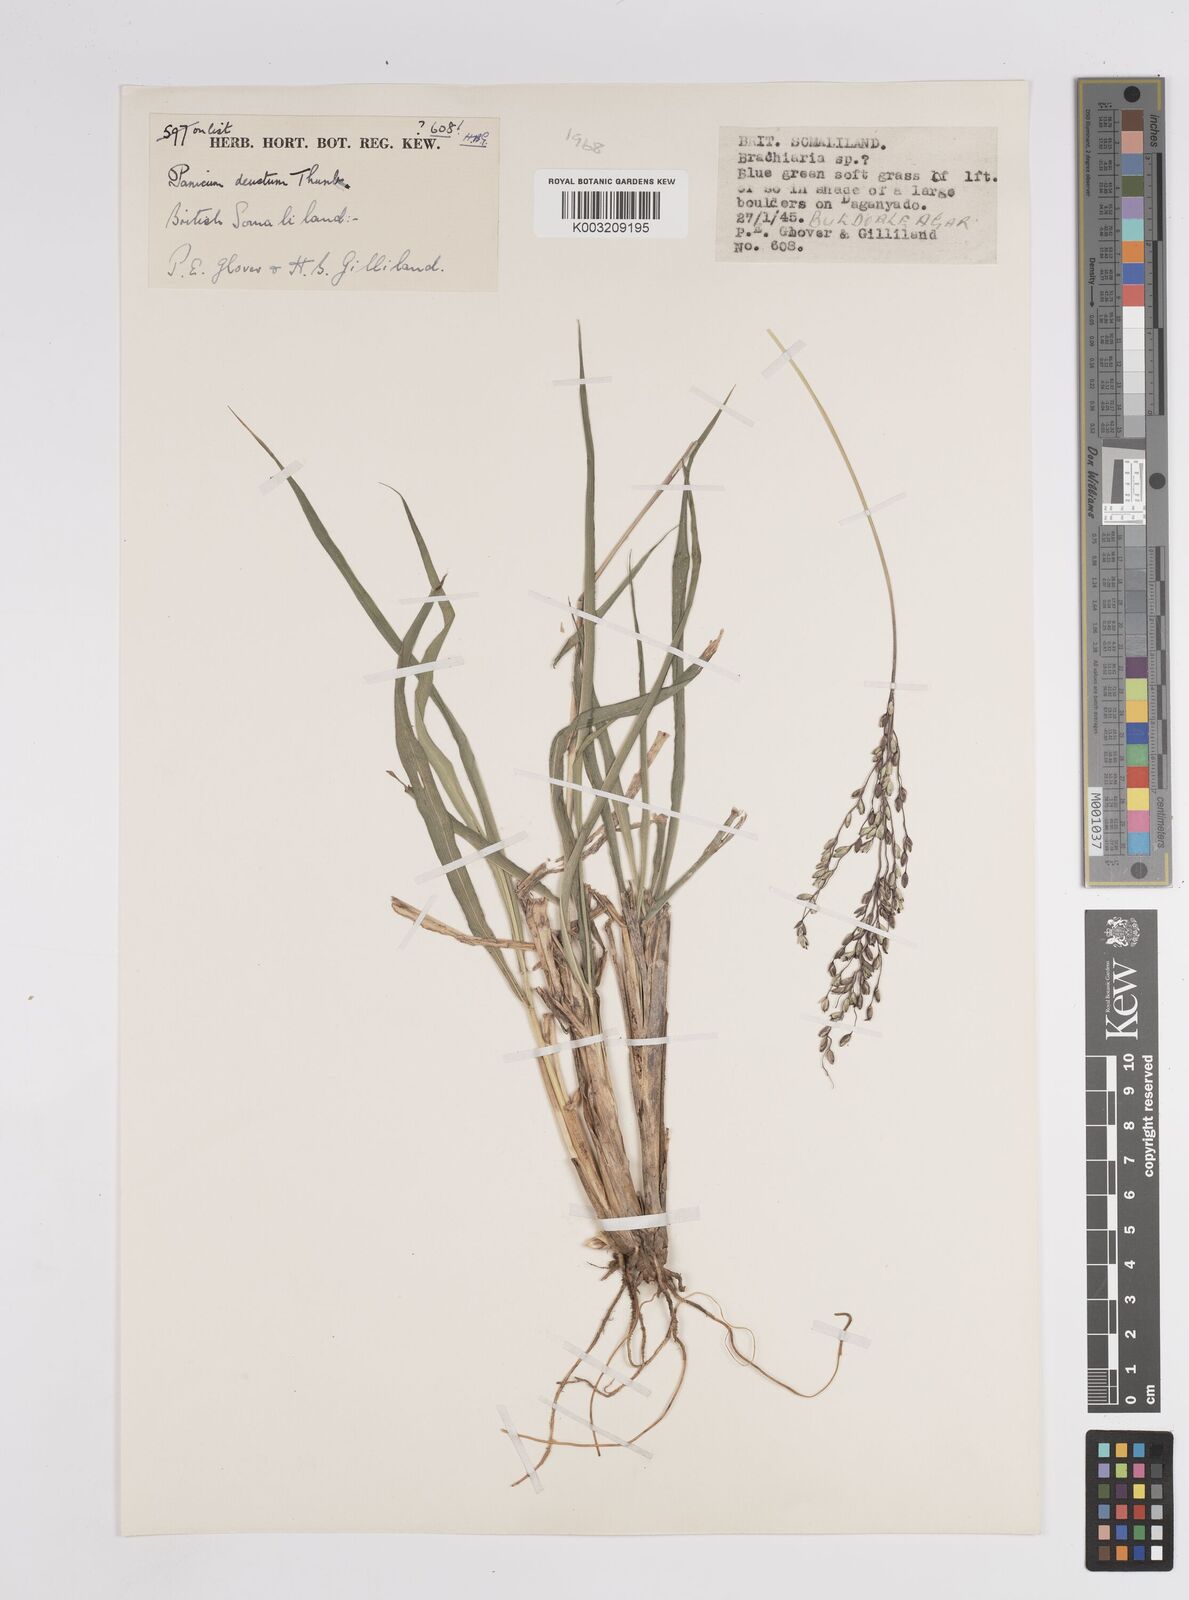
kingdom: Plantae
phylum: Tracheophyta
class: Liliopsida
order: Poales
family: Poaceae
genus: Panicum
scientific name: Panicum
